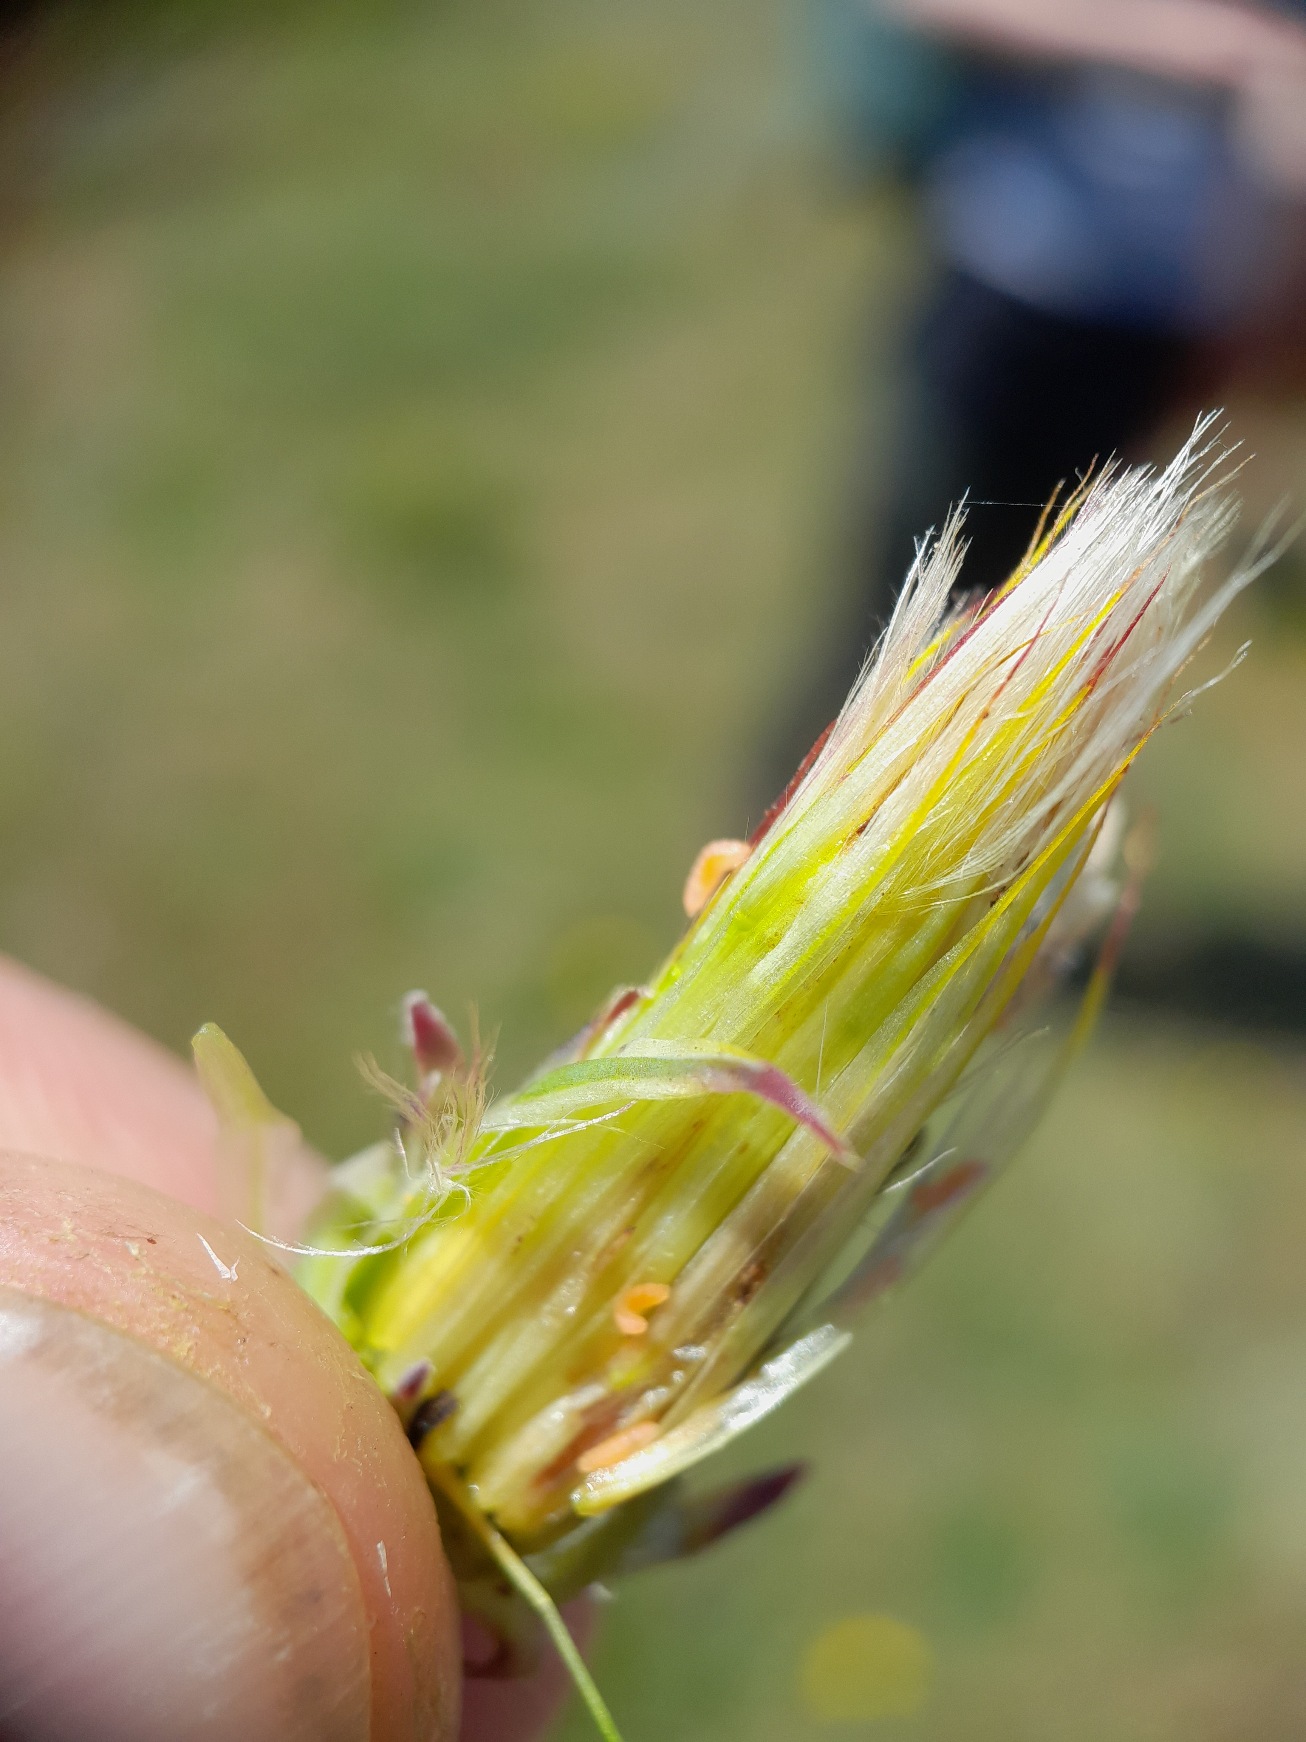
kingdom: Animalia
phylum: Arthropoda
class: Insecta
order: Diptera
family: Cecidomyiidae
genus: Jaapiella
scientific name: Jaapiella hypochoeridis
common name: Orange kongepengalmyg
